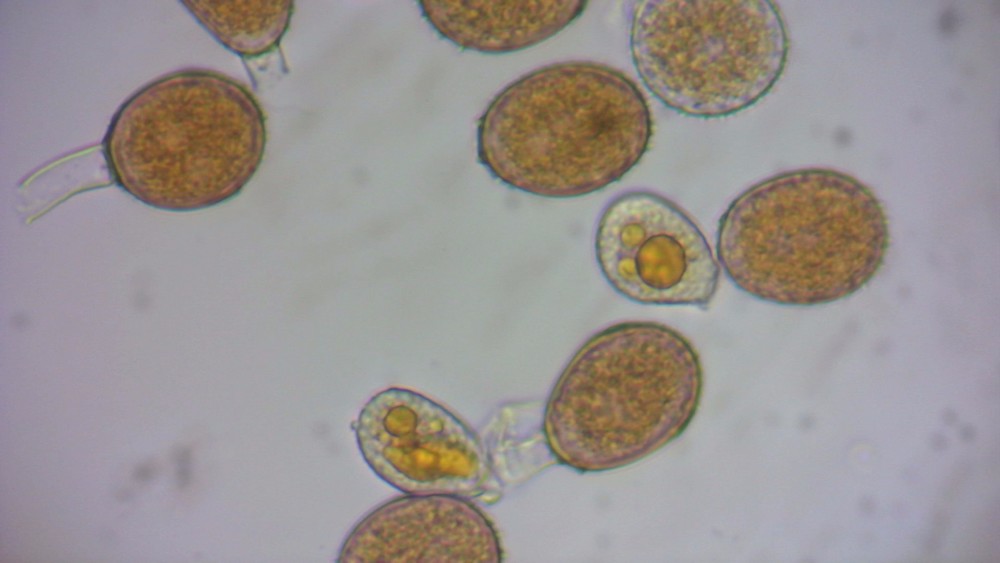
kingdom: Fungi
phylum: Basidiomycota
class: Pucciniomycetes
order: Pucciniales
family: Pucciniaceae
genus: Puccinia
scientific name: Puccinia obscura
